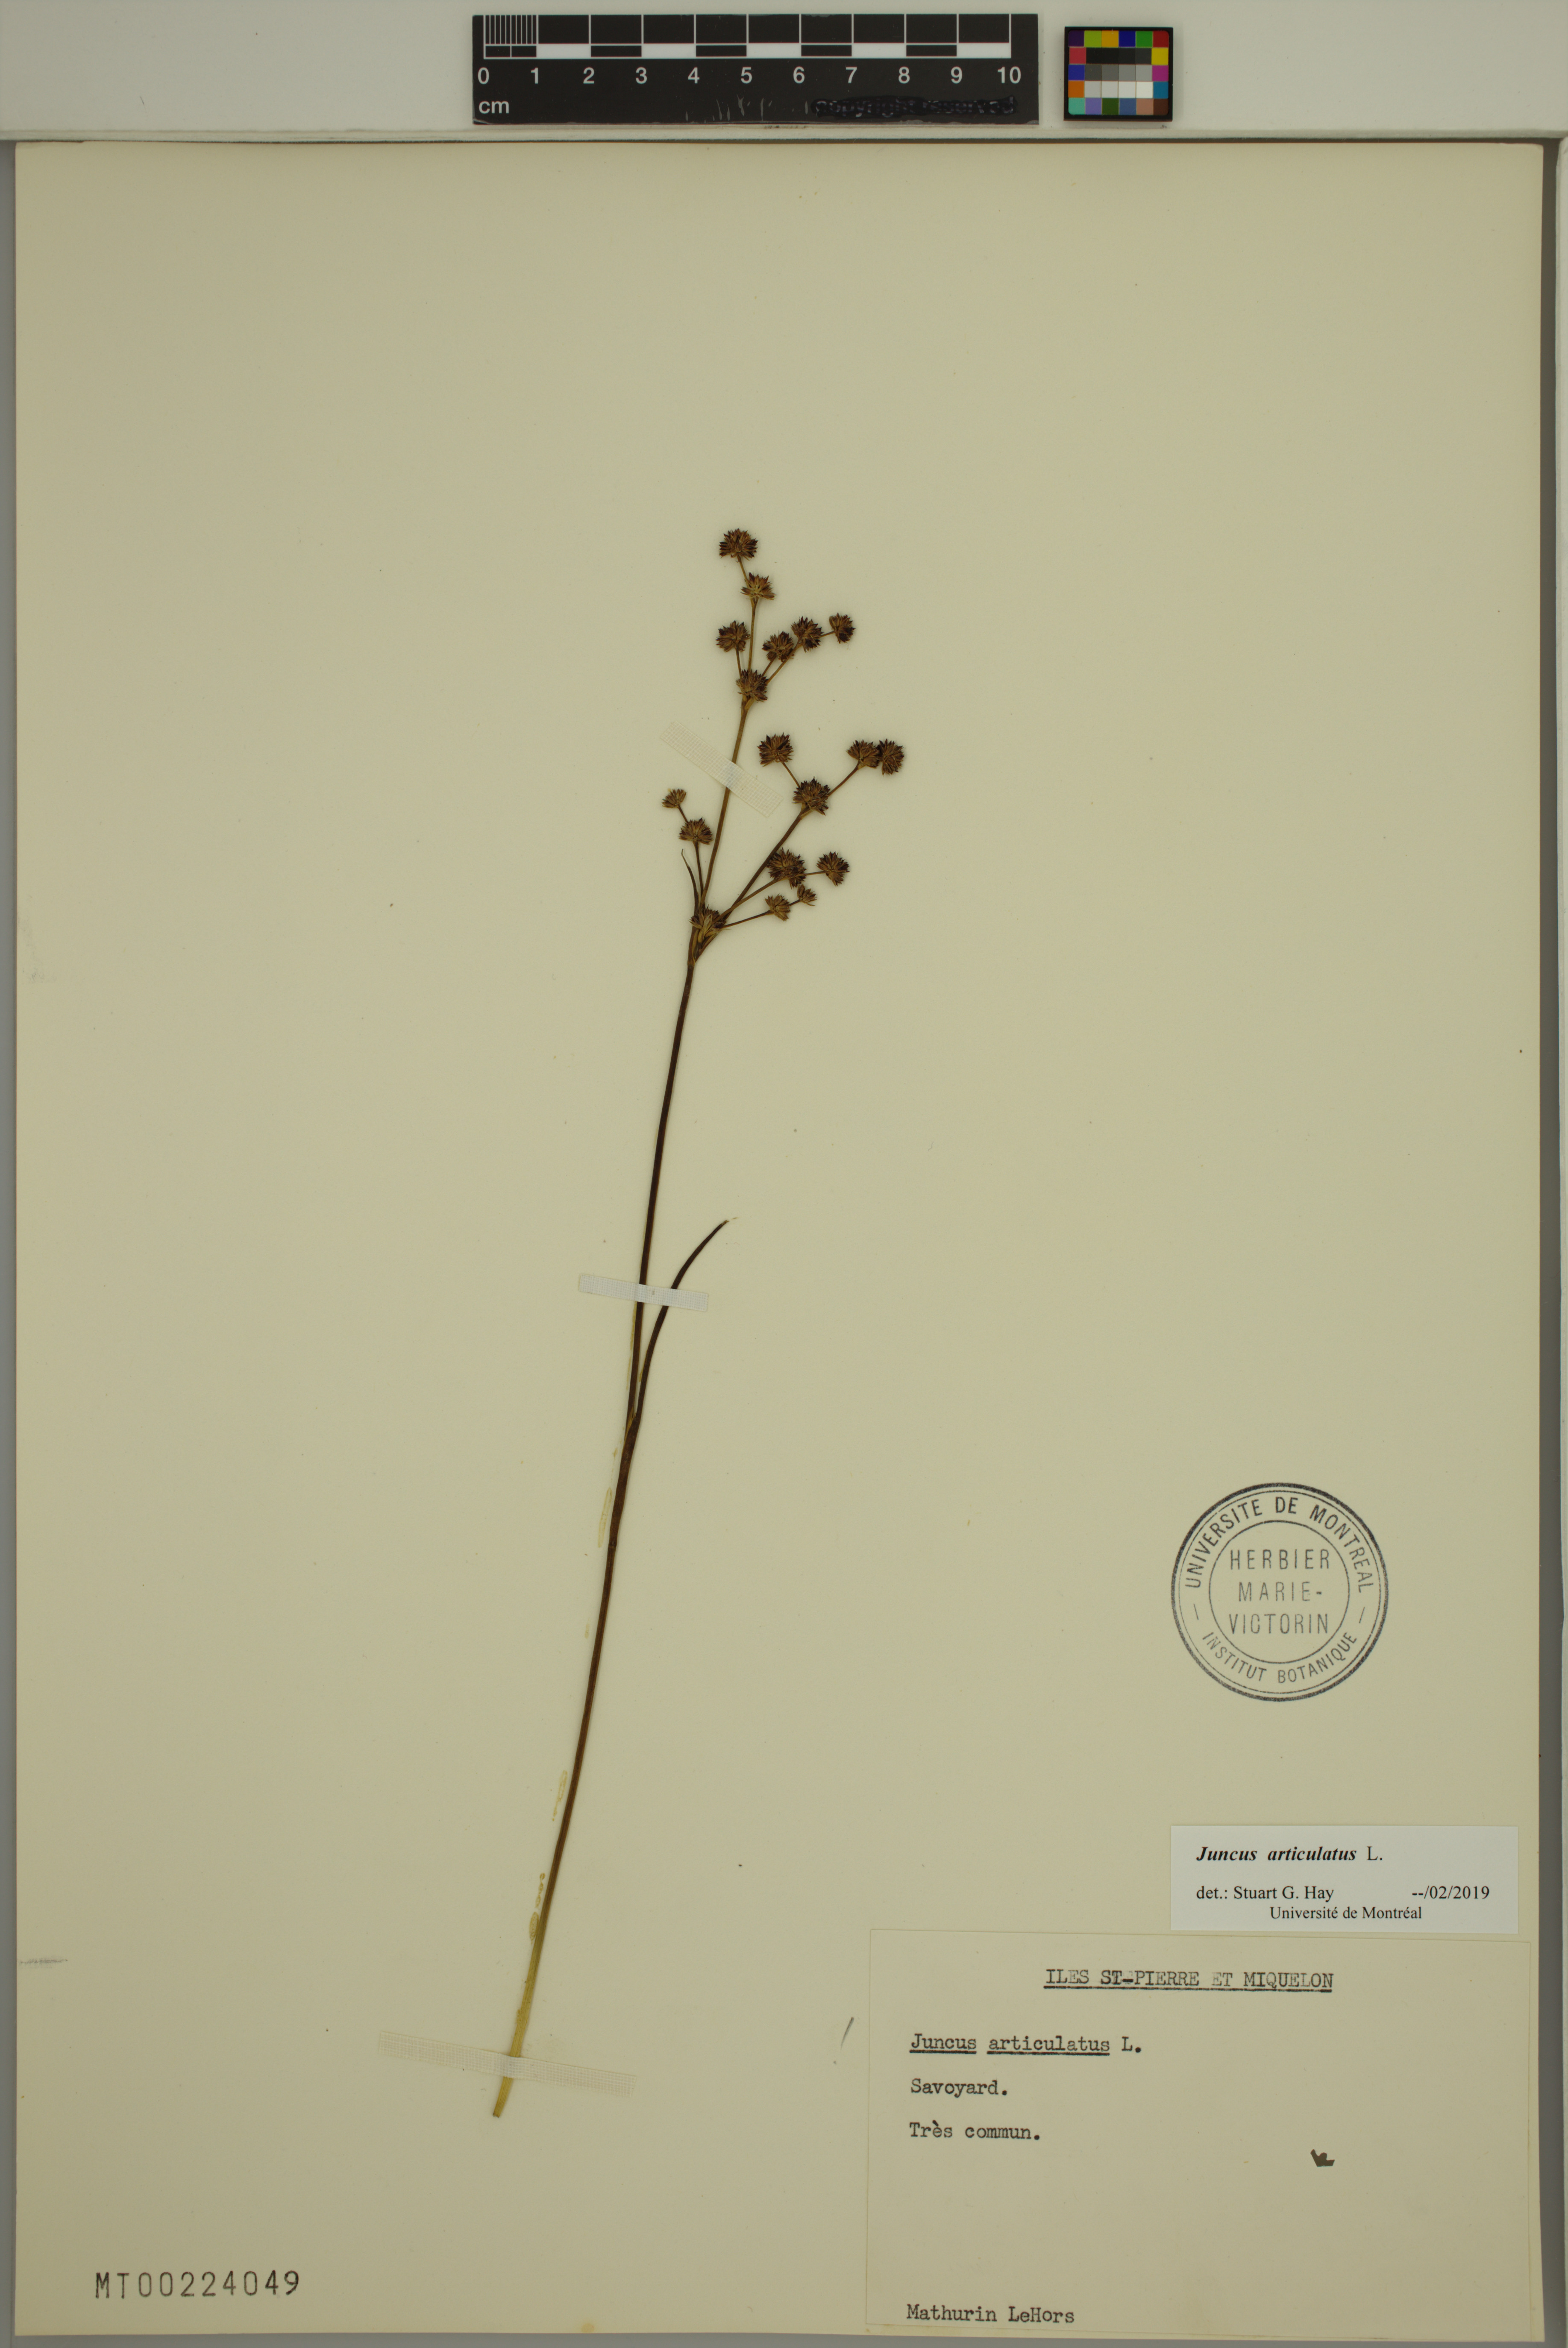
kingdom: Plantae
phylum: Tracheophyta
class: Liliopsida
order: Poales
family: Juncaceae
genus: Juncus
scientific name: Juncus articulatus
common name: Jointed rush
